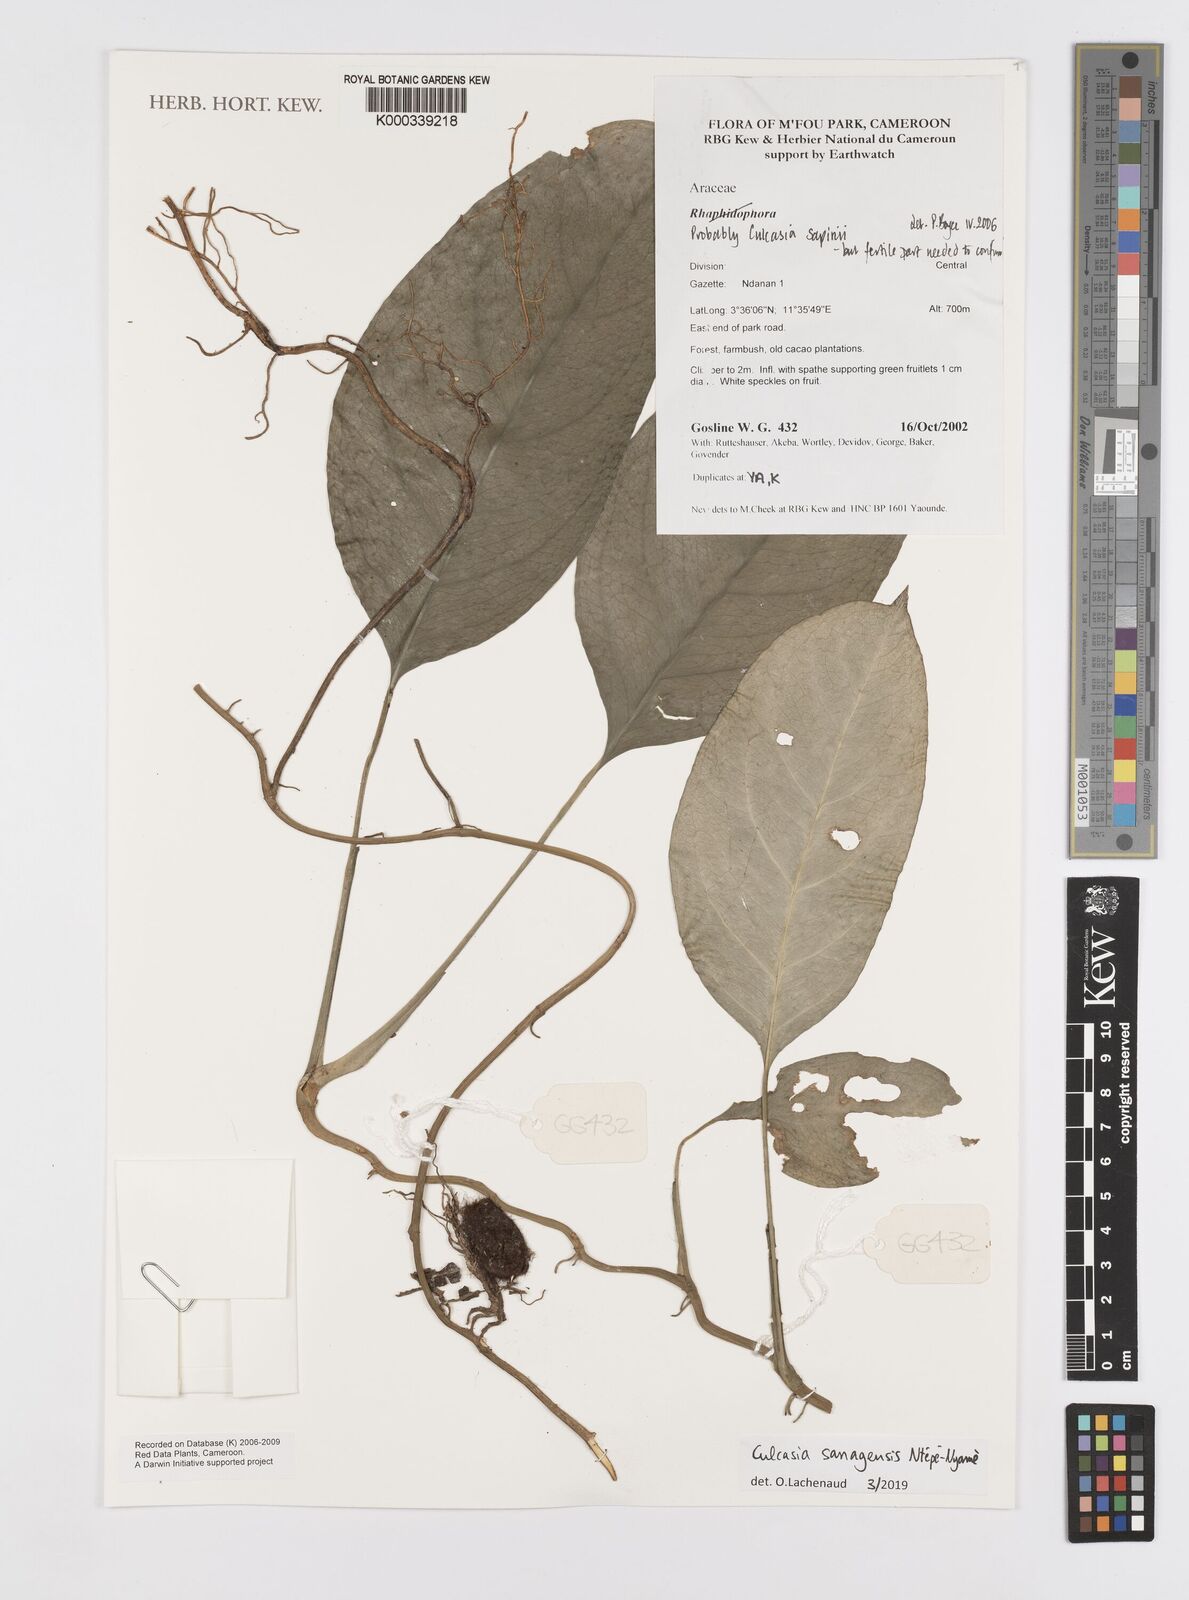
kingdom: Plantae
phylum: Tracheophyta
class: Liliopsida
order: Alismatales
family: Araceae
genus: Culcasia
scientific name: Culcasia
